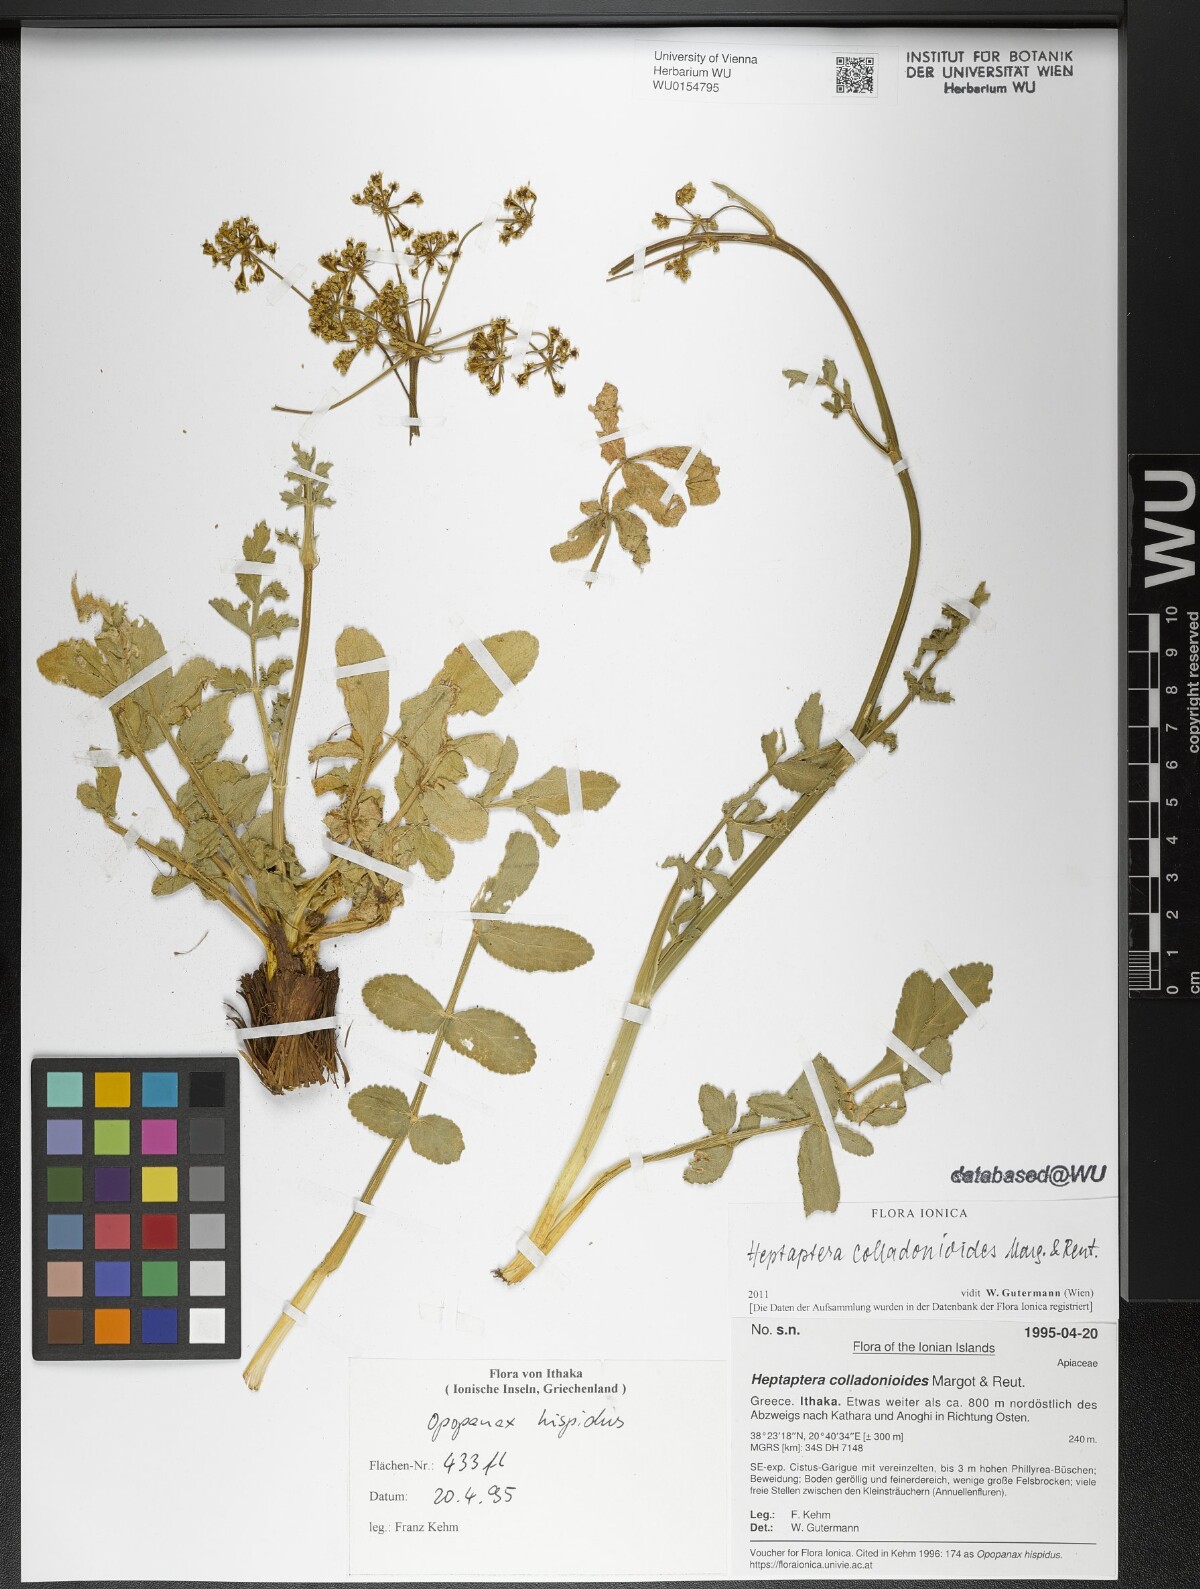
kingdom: Plantae
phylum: Tracheophyta
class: Magnoliopsida
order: Apiales
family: Apiaceae
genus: Heptaptera
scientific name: Heptaptera colladonioides
